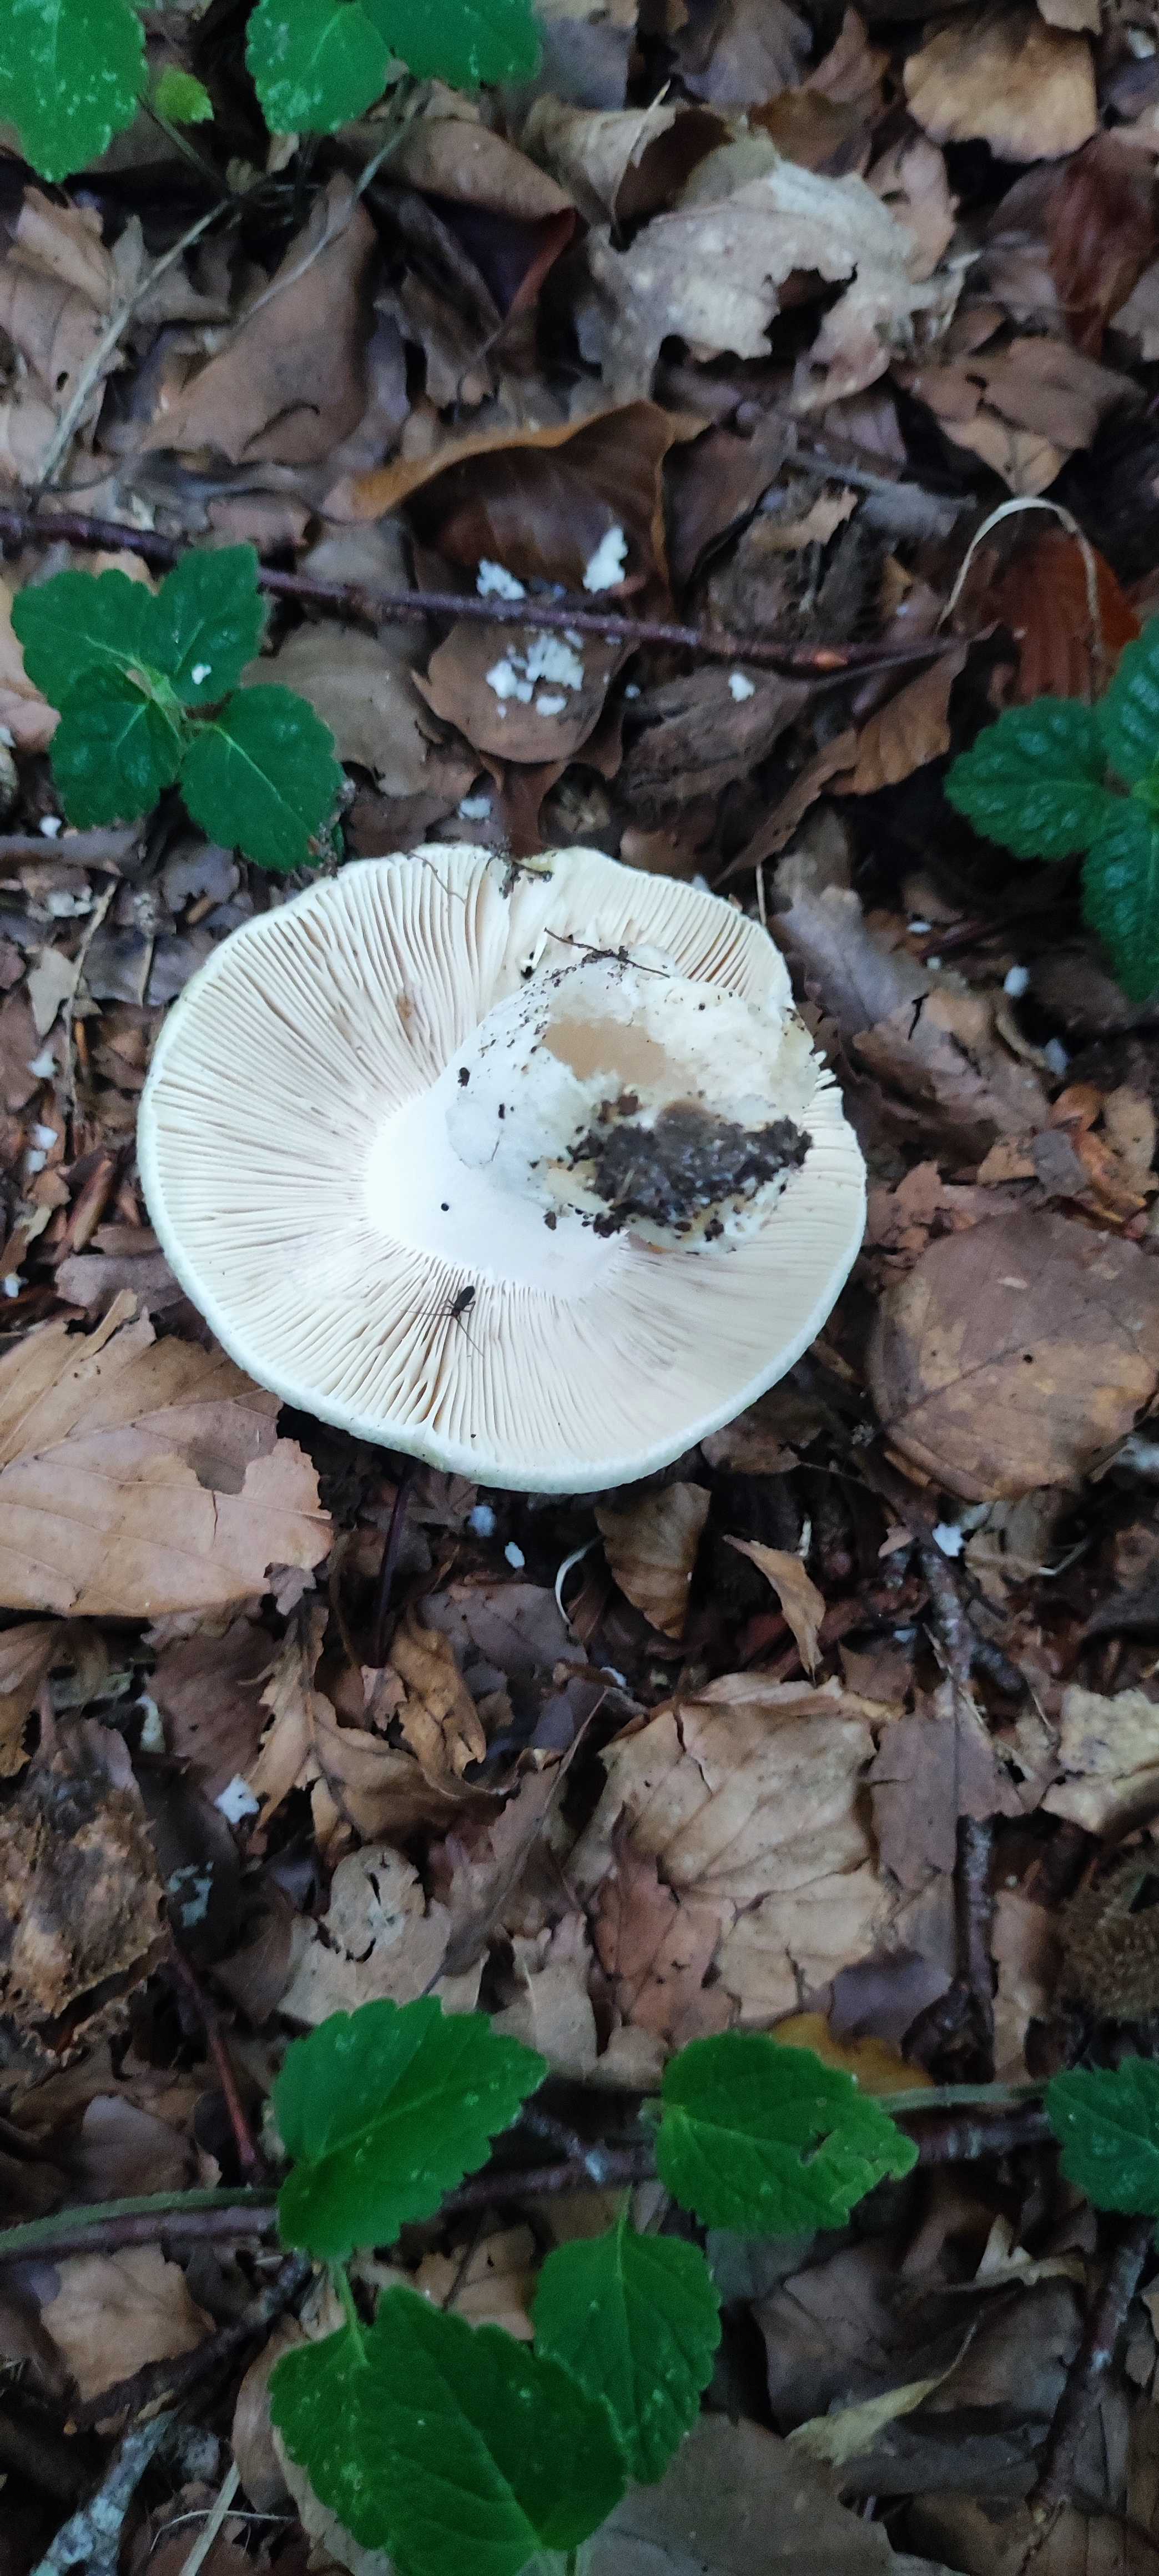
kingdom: Fungi
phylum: Basidiomycota
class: Agaricomycetes
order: Russulales
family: Russulaceae
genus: Russula
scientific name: Russula virescens
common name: spanskgrøn skørhat
